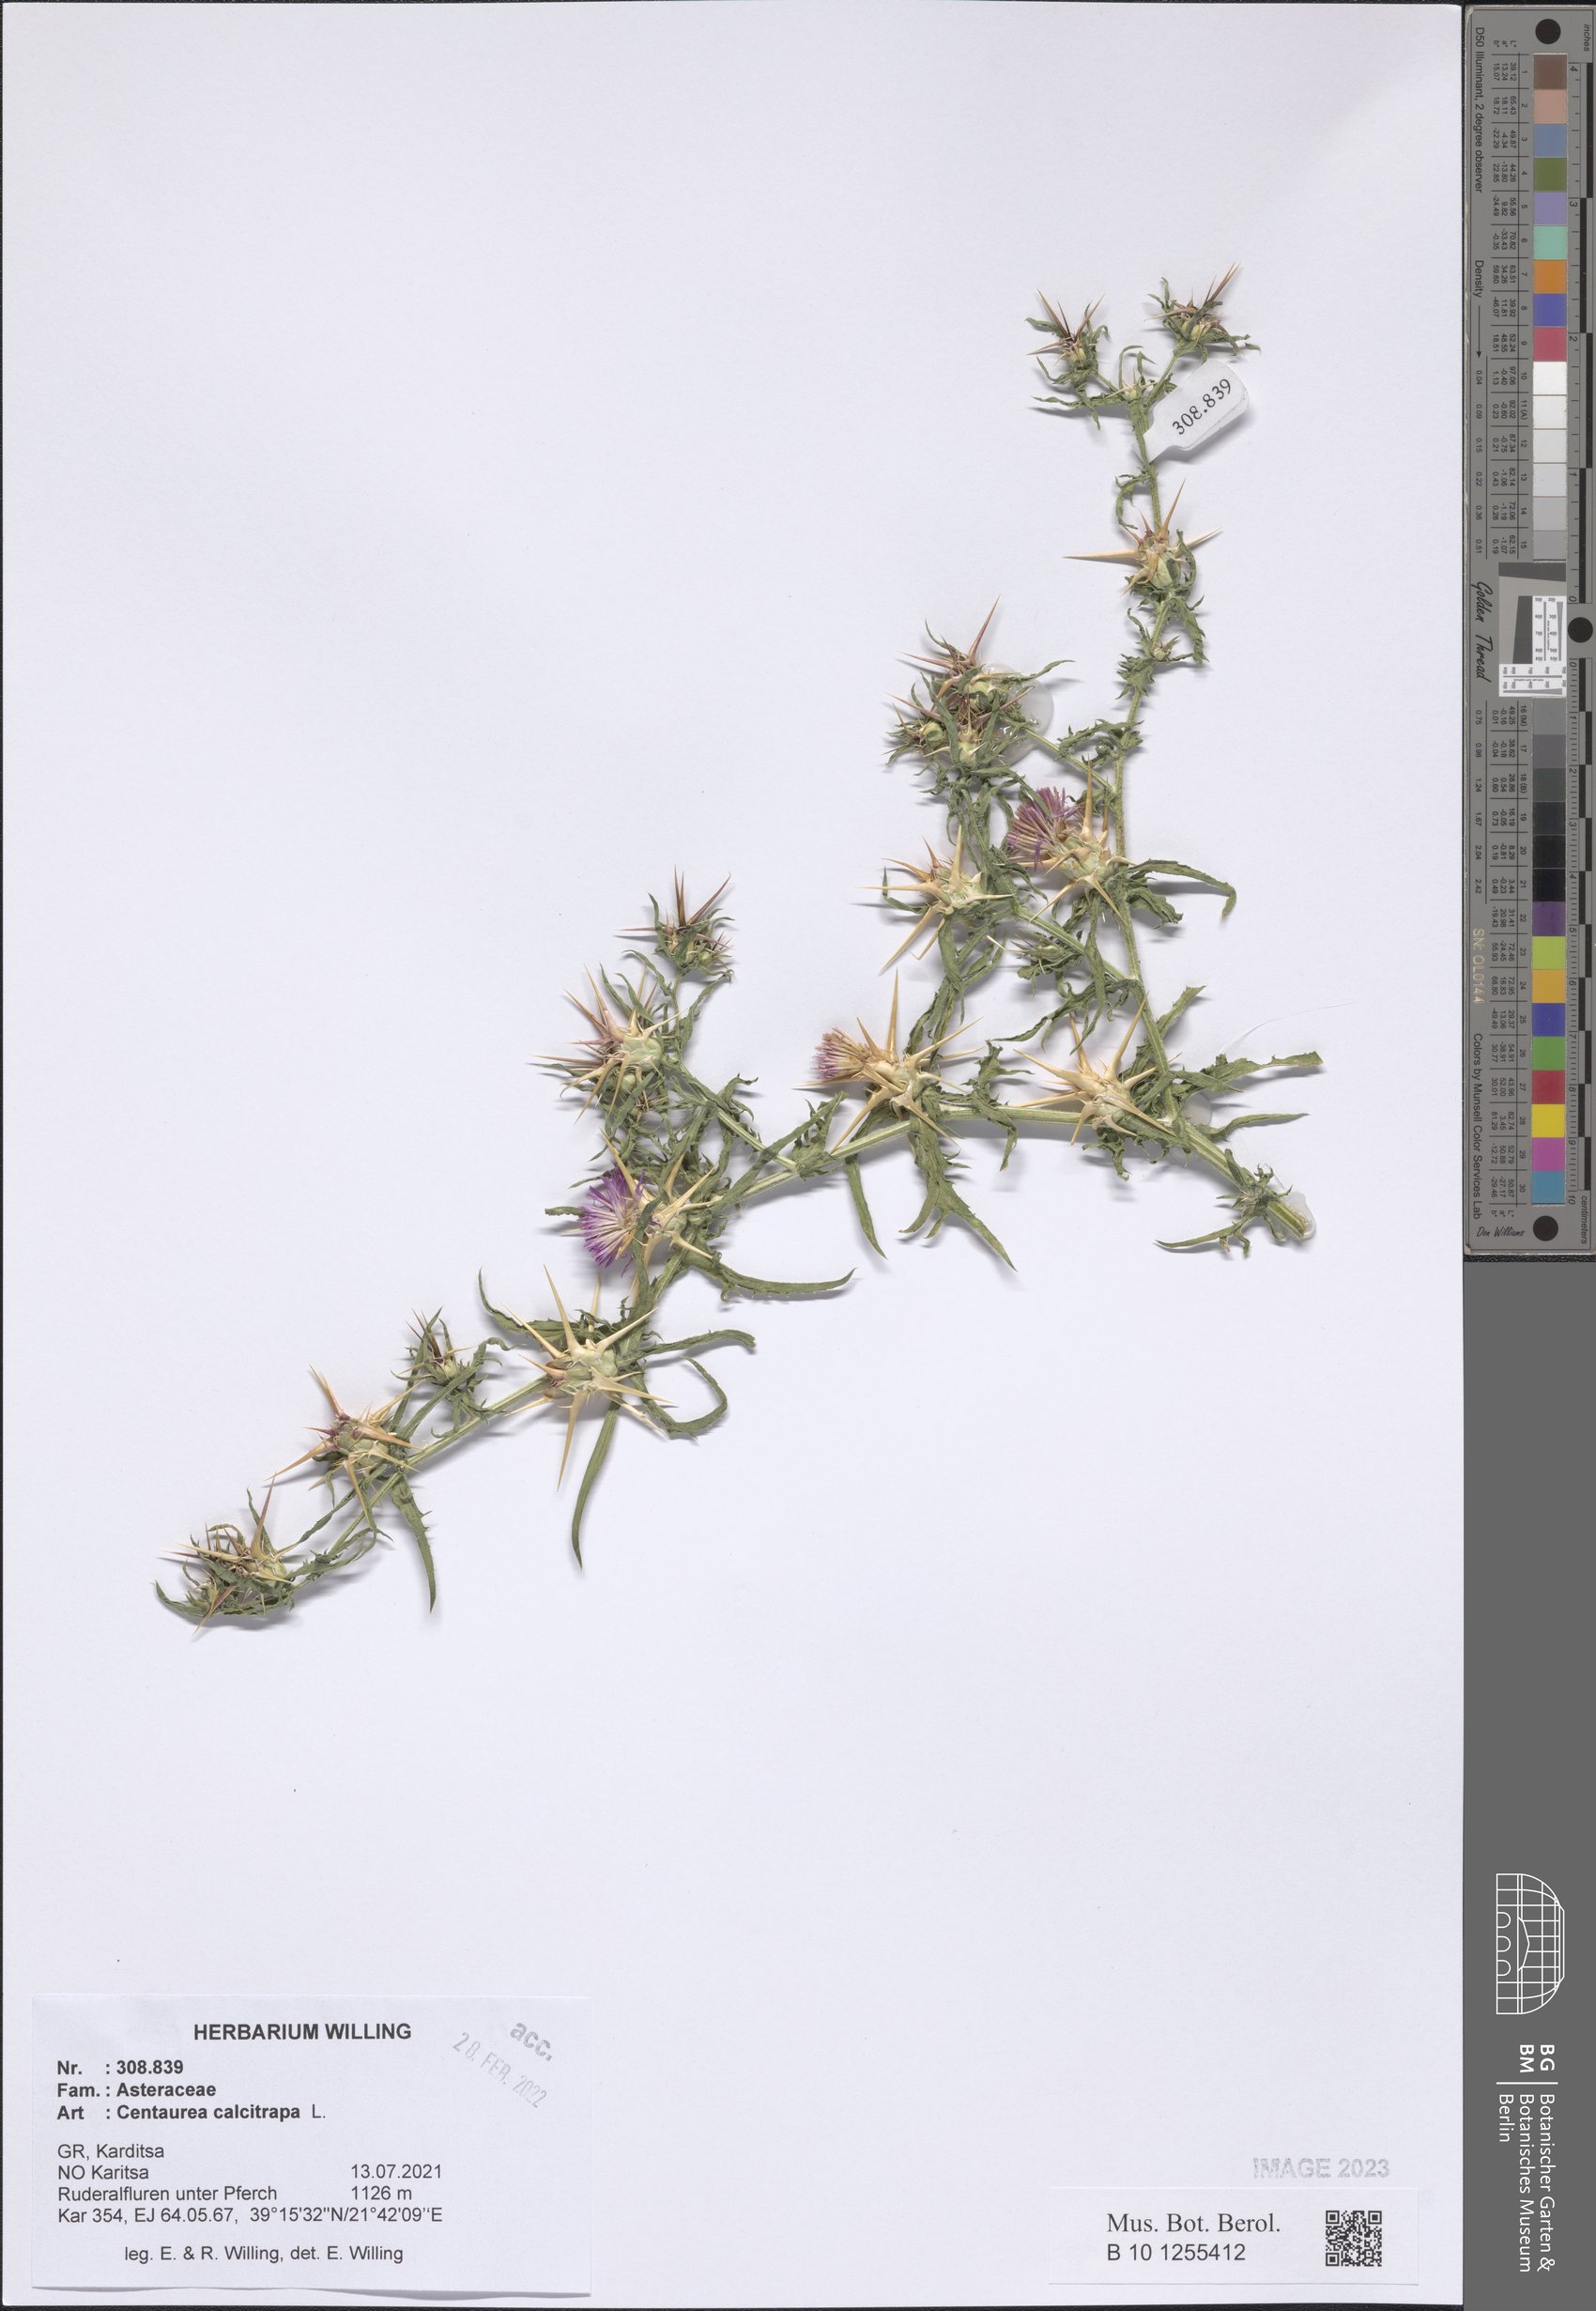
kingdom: Plantae
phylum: Tracheophyta
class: Magnoliopsida
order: Asterales
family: Asteraceae
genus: Centaurea
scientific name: Centaurea calcitrapa
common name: Red star-thistle
